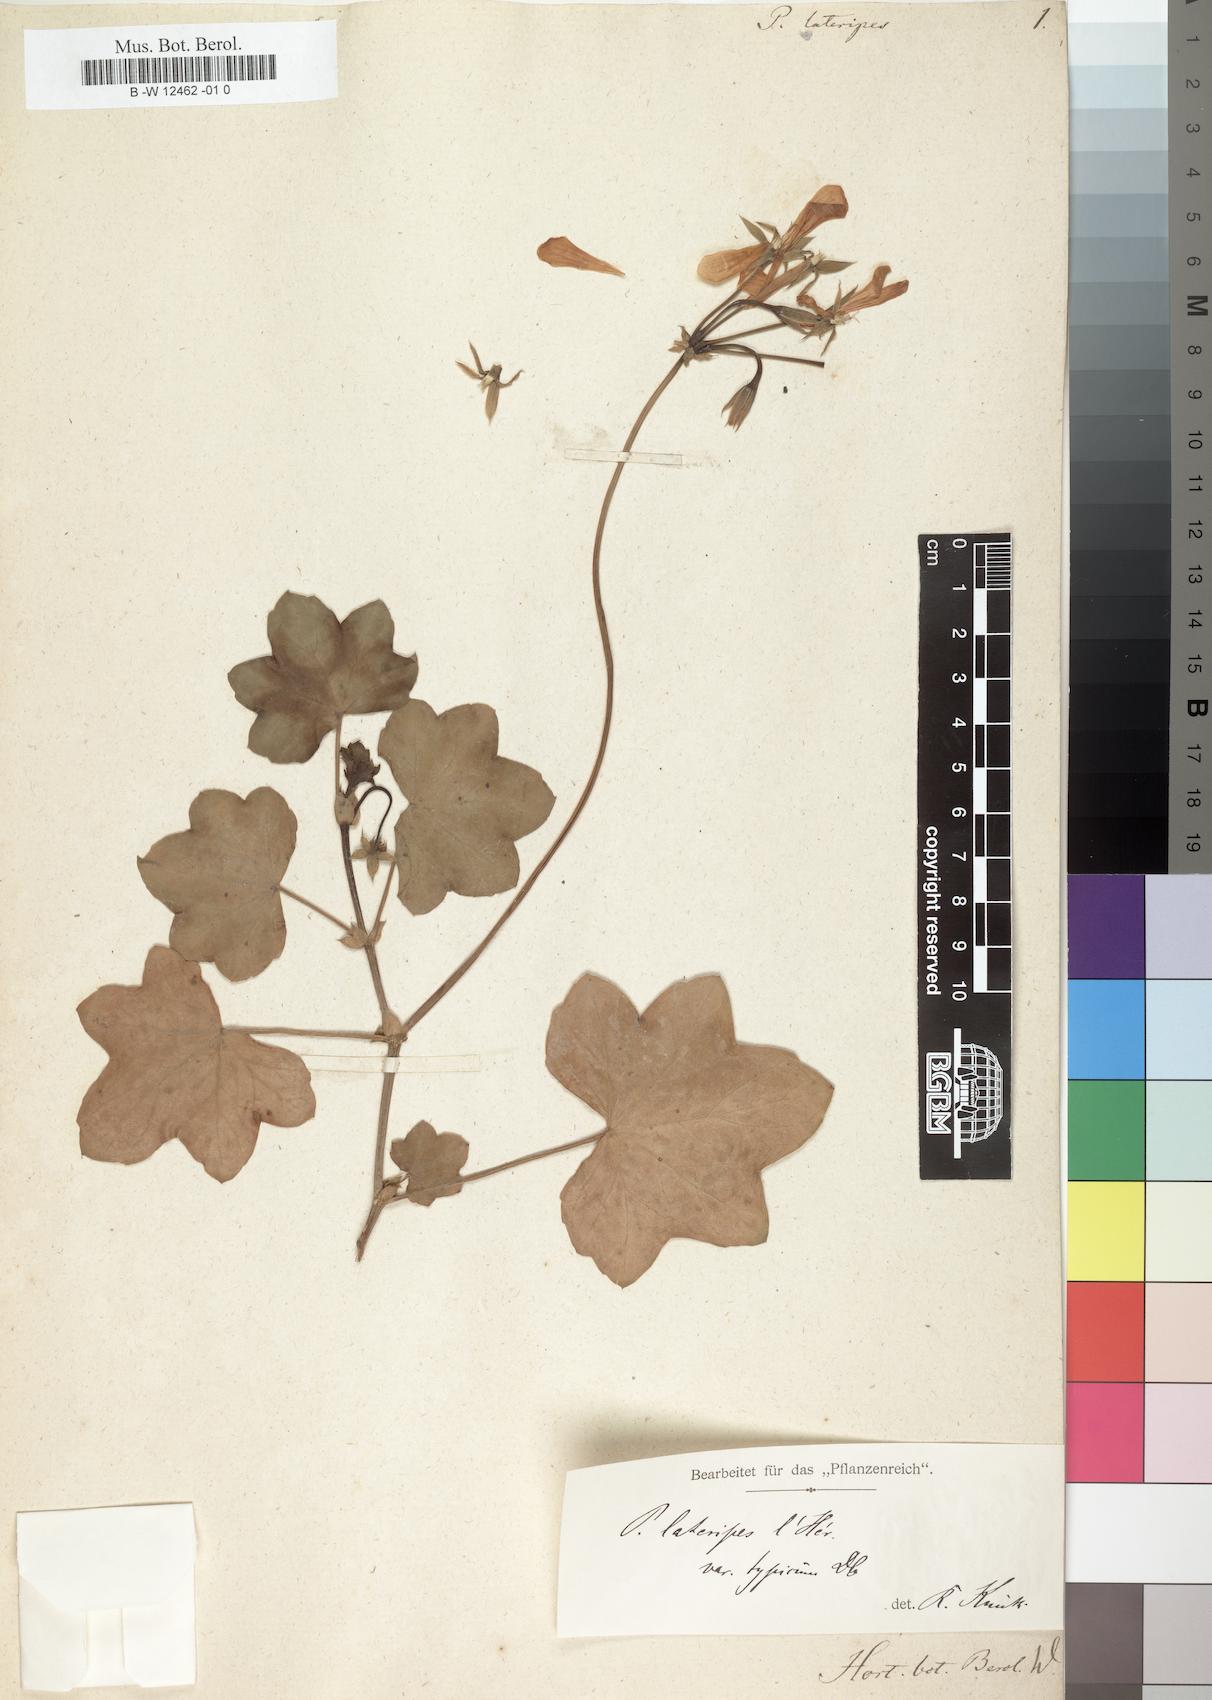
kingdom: Plantae
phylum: Tracheophyta
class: Magnoliopsida
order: Geraniales
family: Geraniaceae
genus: Pelargonium
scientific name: Pelargonium peltatum
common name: Ivyleaf geranium
